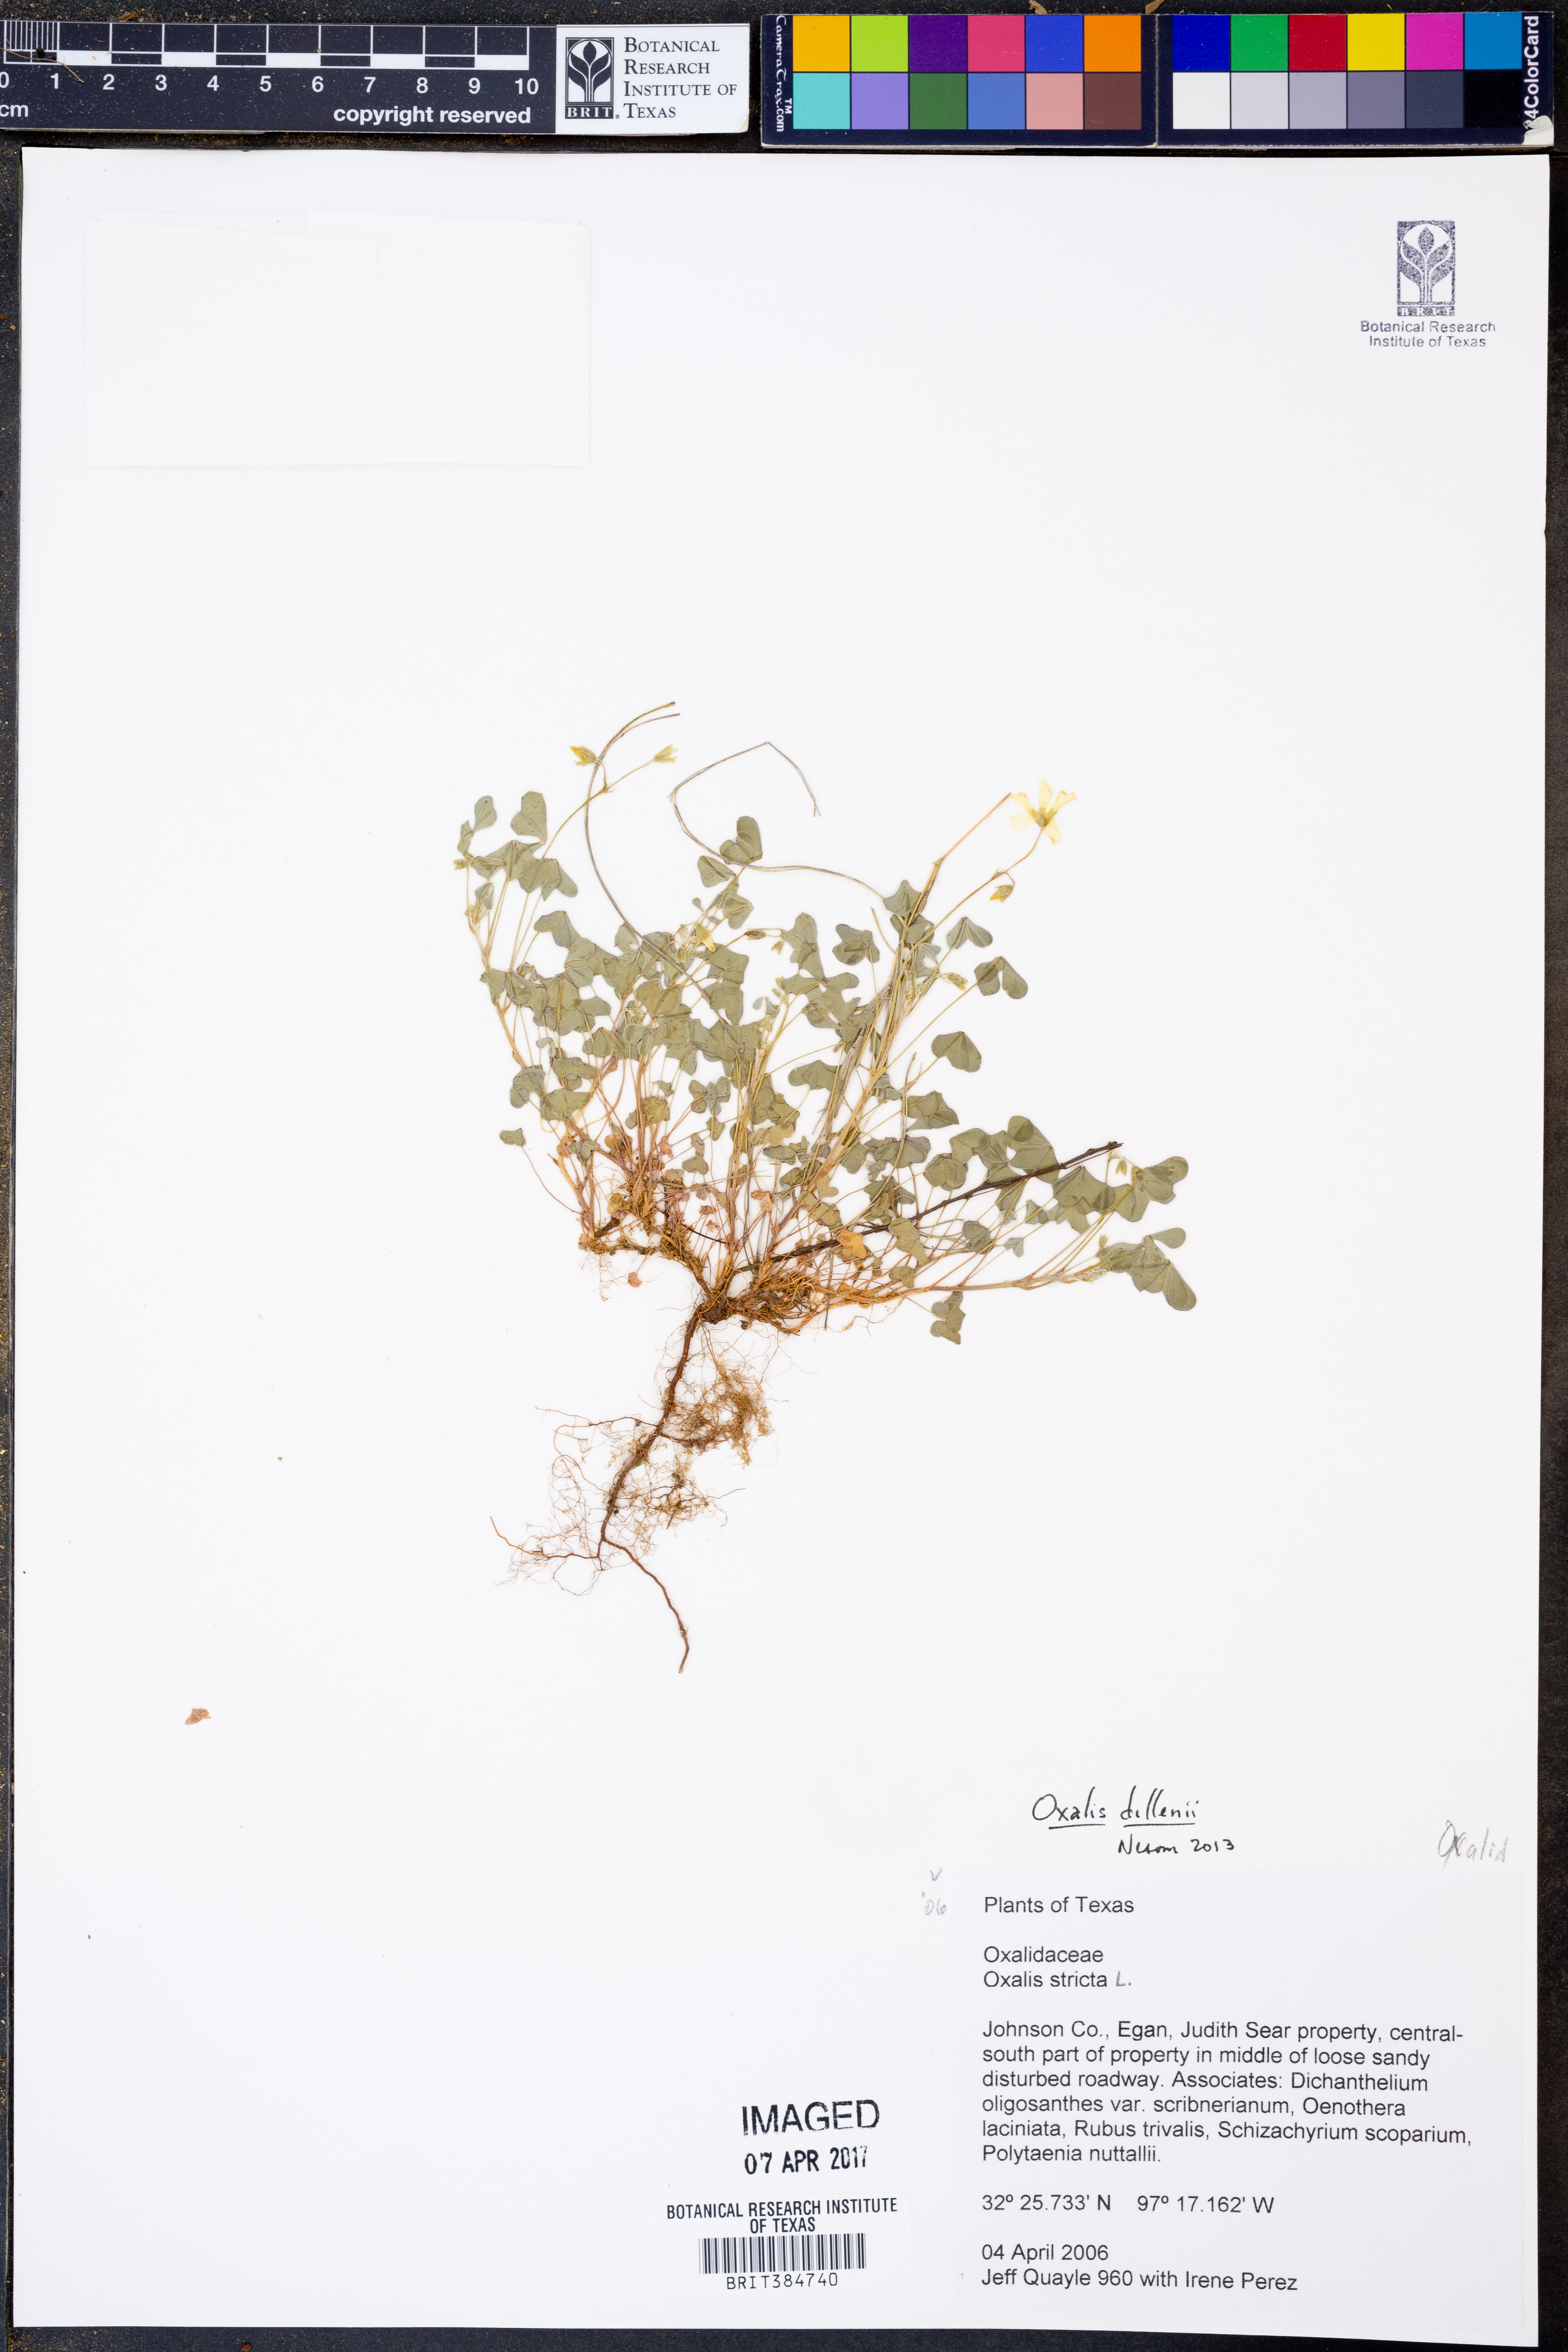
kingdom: Plantae
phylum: Tracheophyta
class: Magnoliopsida
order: Oxalidales
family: Oxalidaceae
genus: Oxalis
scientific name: Oxalis dillenii
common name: Sussex yellow-sorrel
